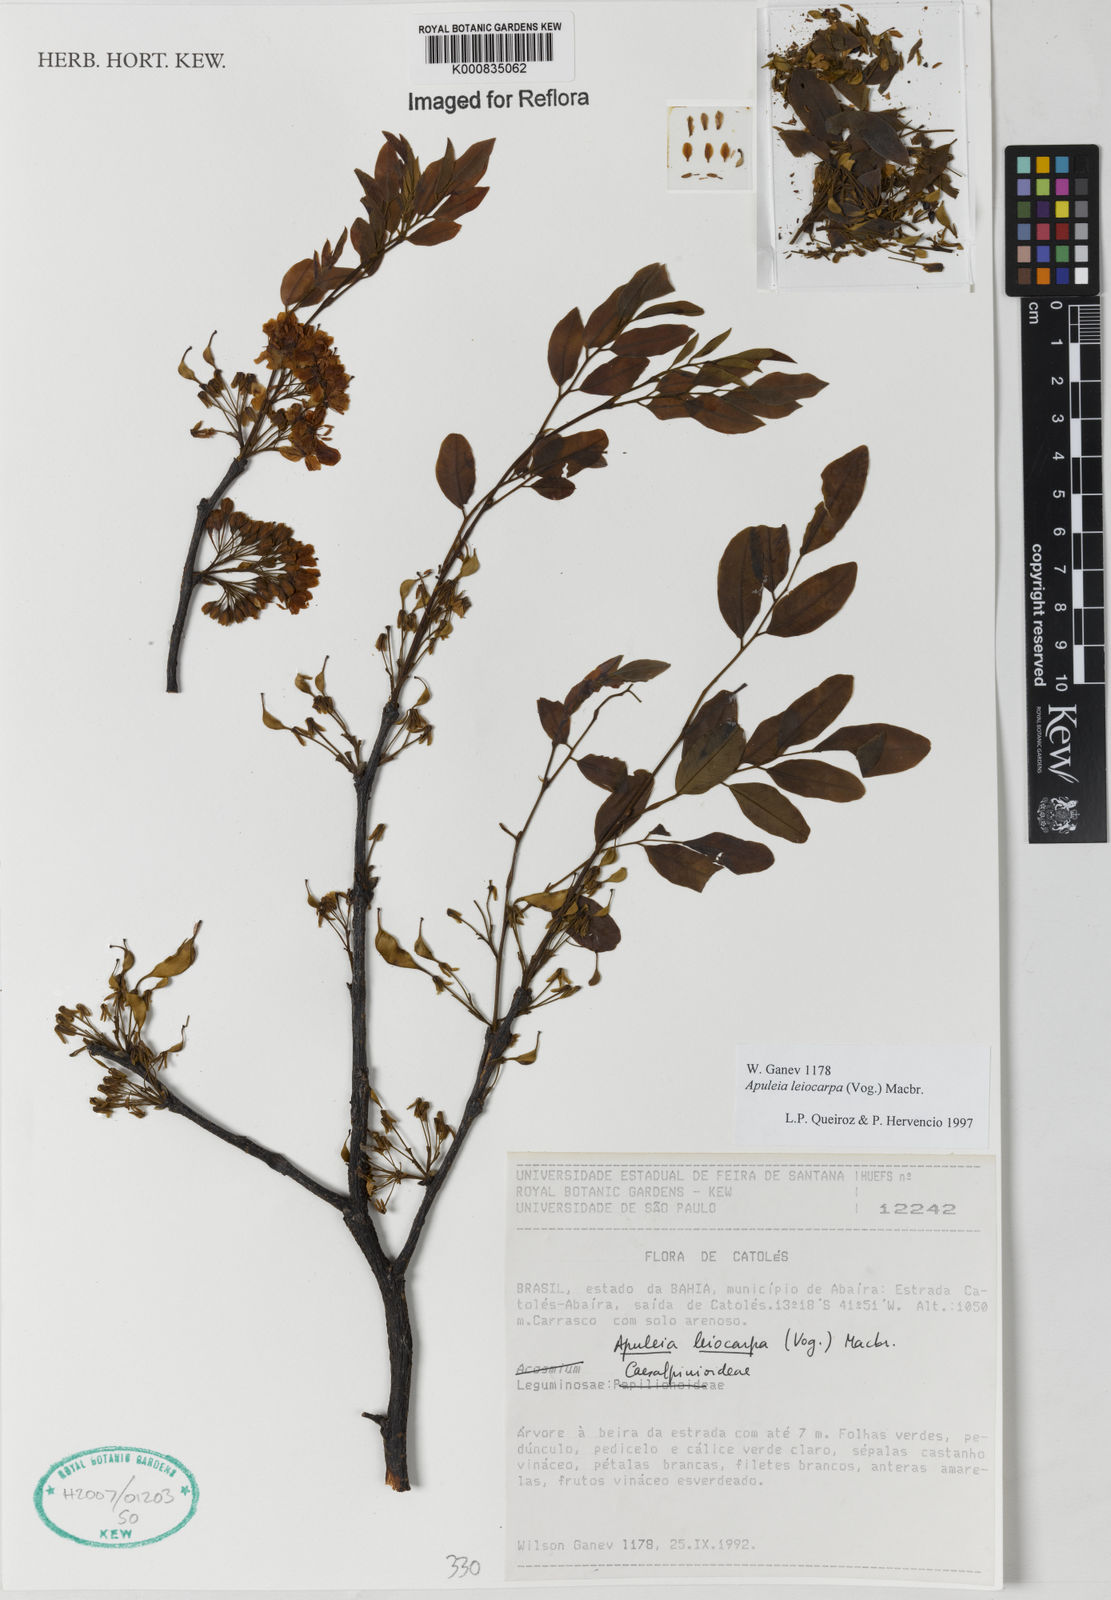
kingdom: Plantae
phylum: Tracheophyta
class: Magnoliopsida
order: Fabales
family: Fabaceae
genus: Acosmium
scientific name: Acosmium
